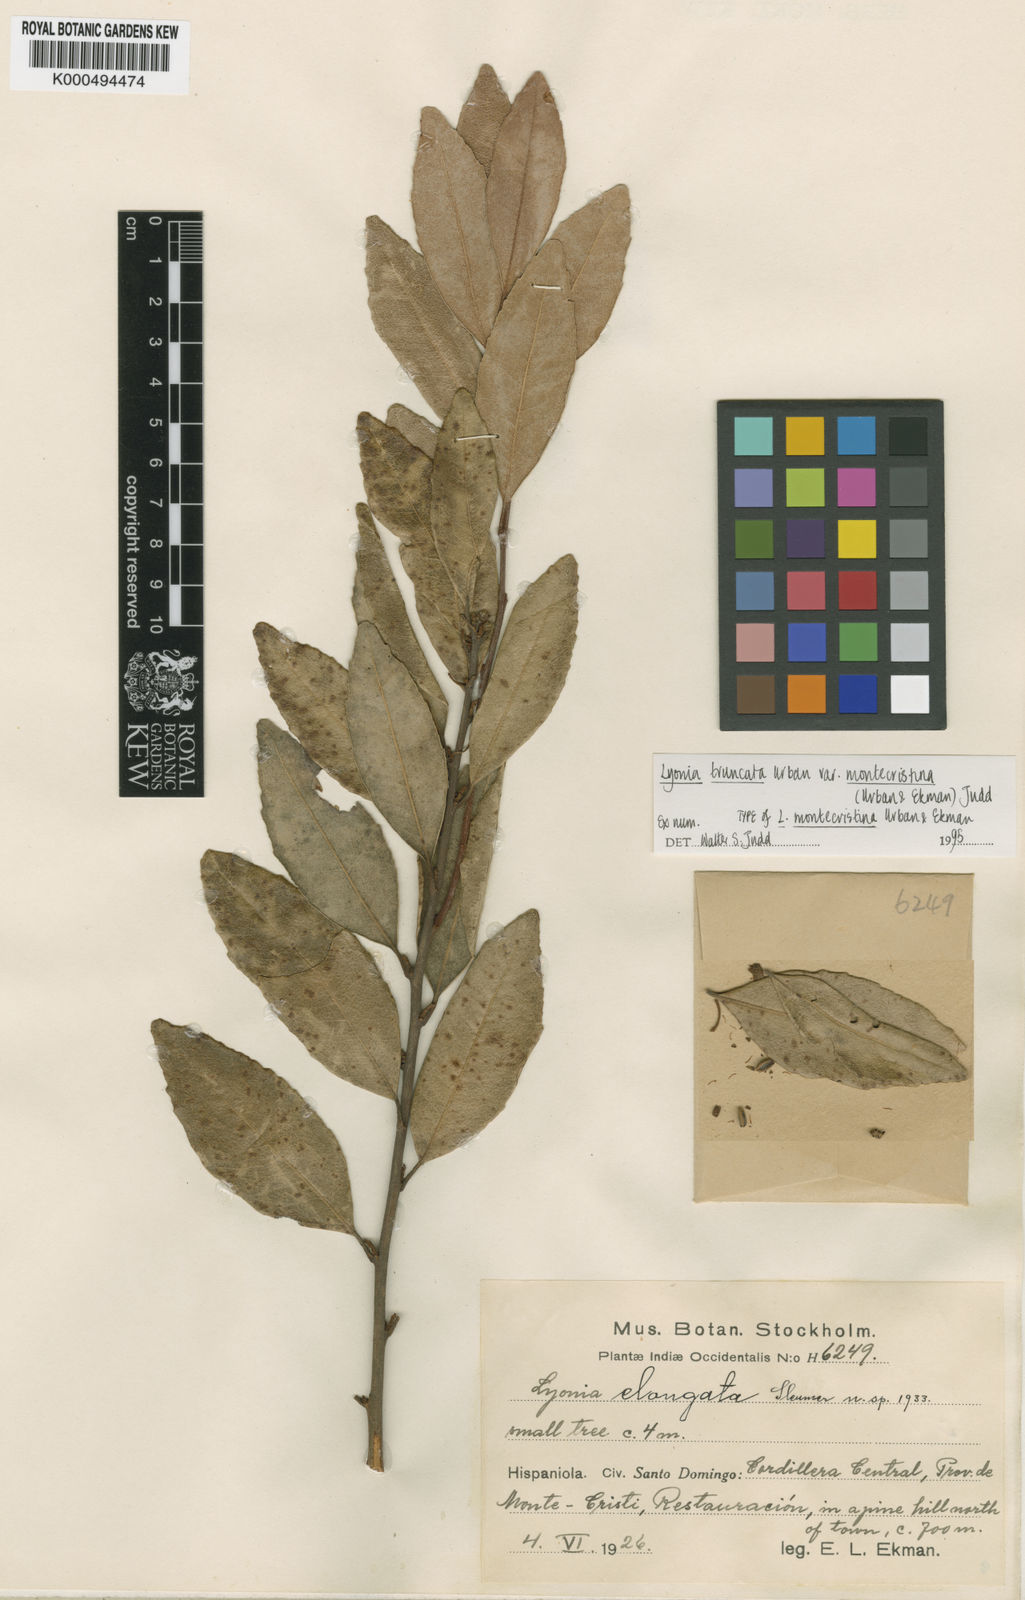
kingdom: Plantae
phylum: Tracheophyta
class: Magnoliopsida
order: Ericales
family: Ericaceae
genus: Lyonia
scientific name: Lyonia truncata
